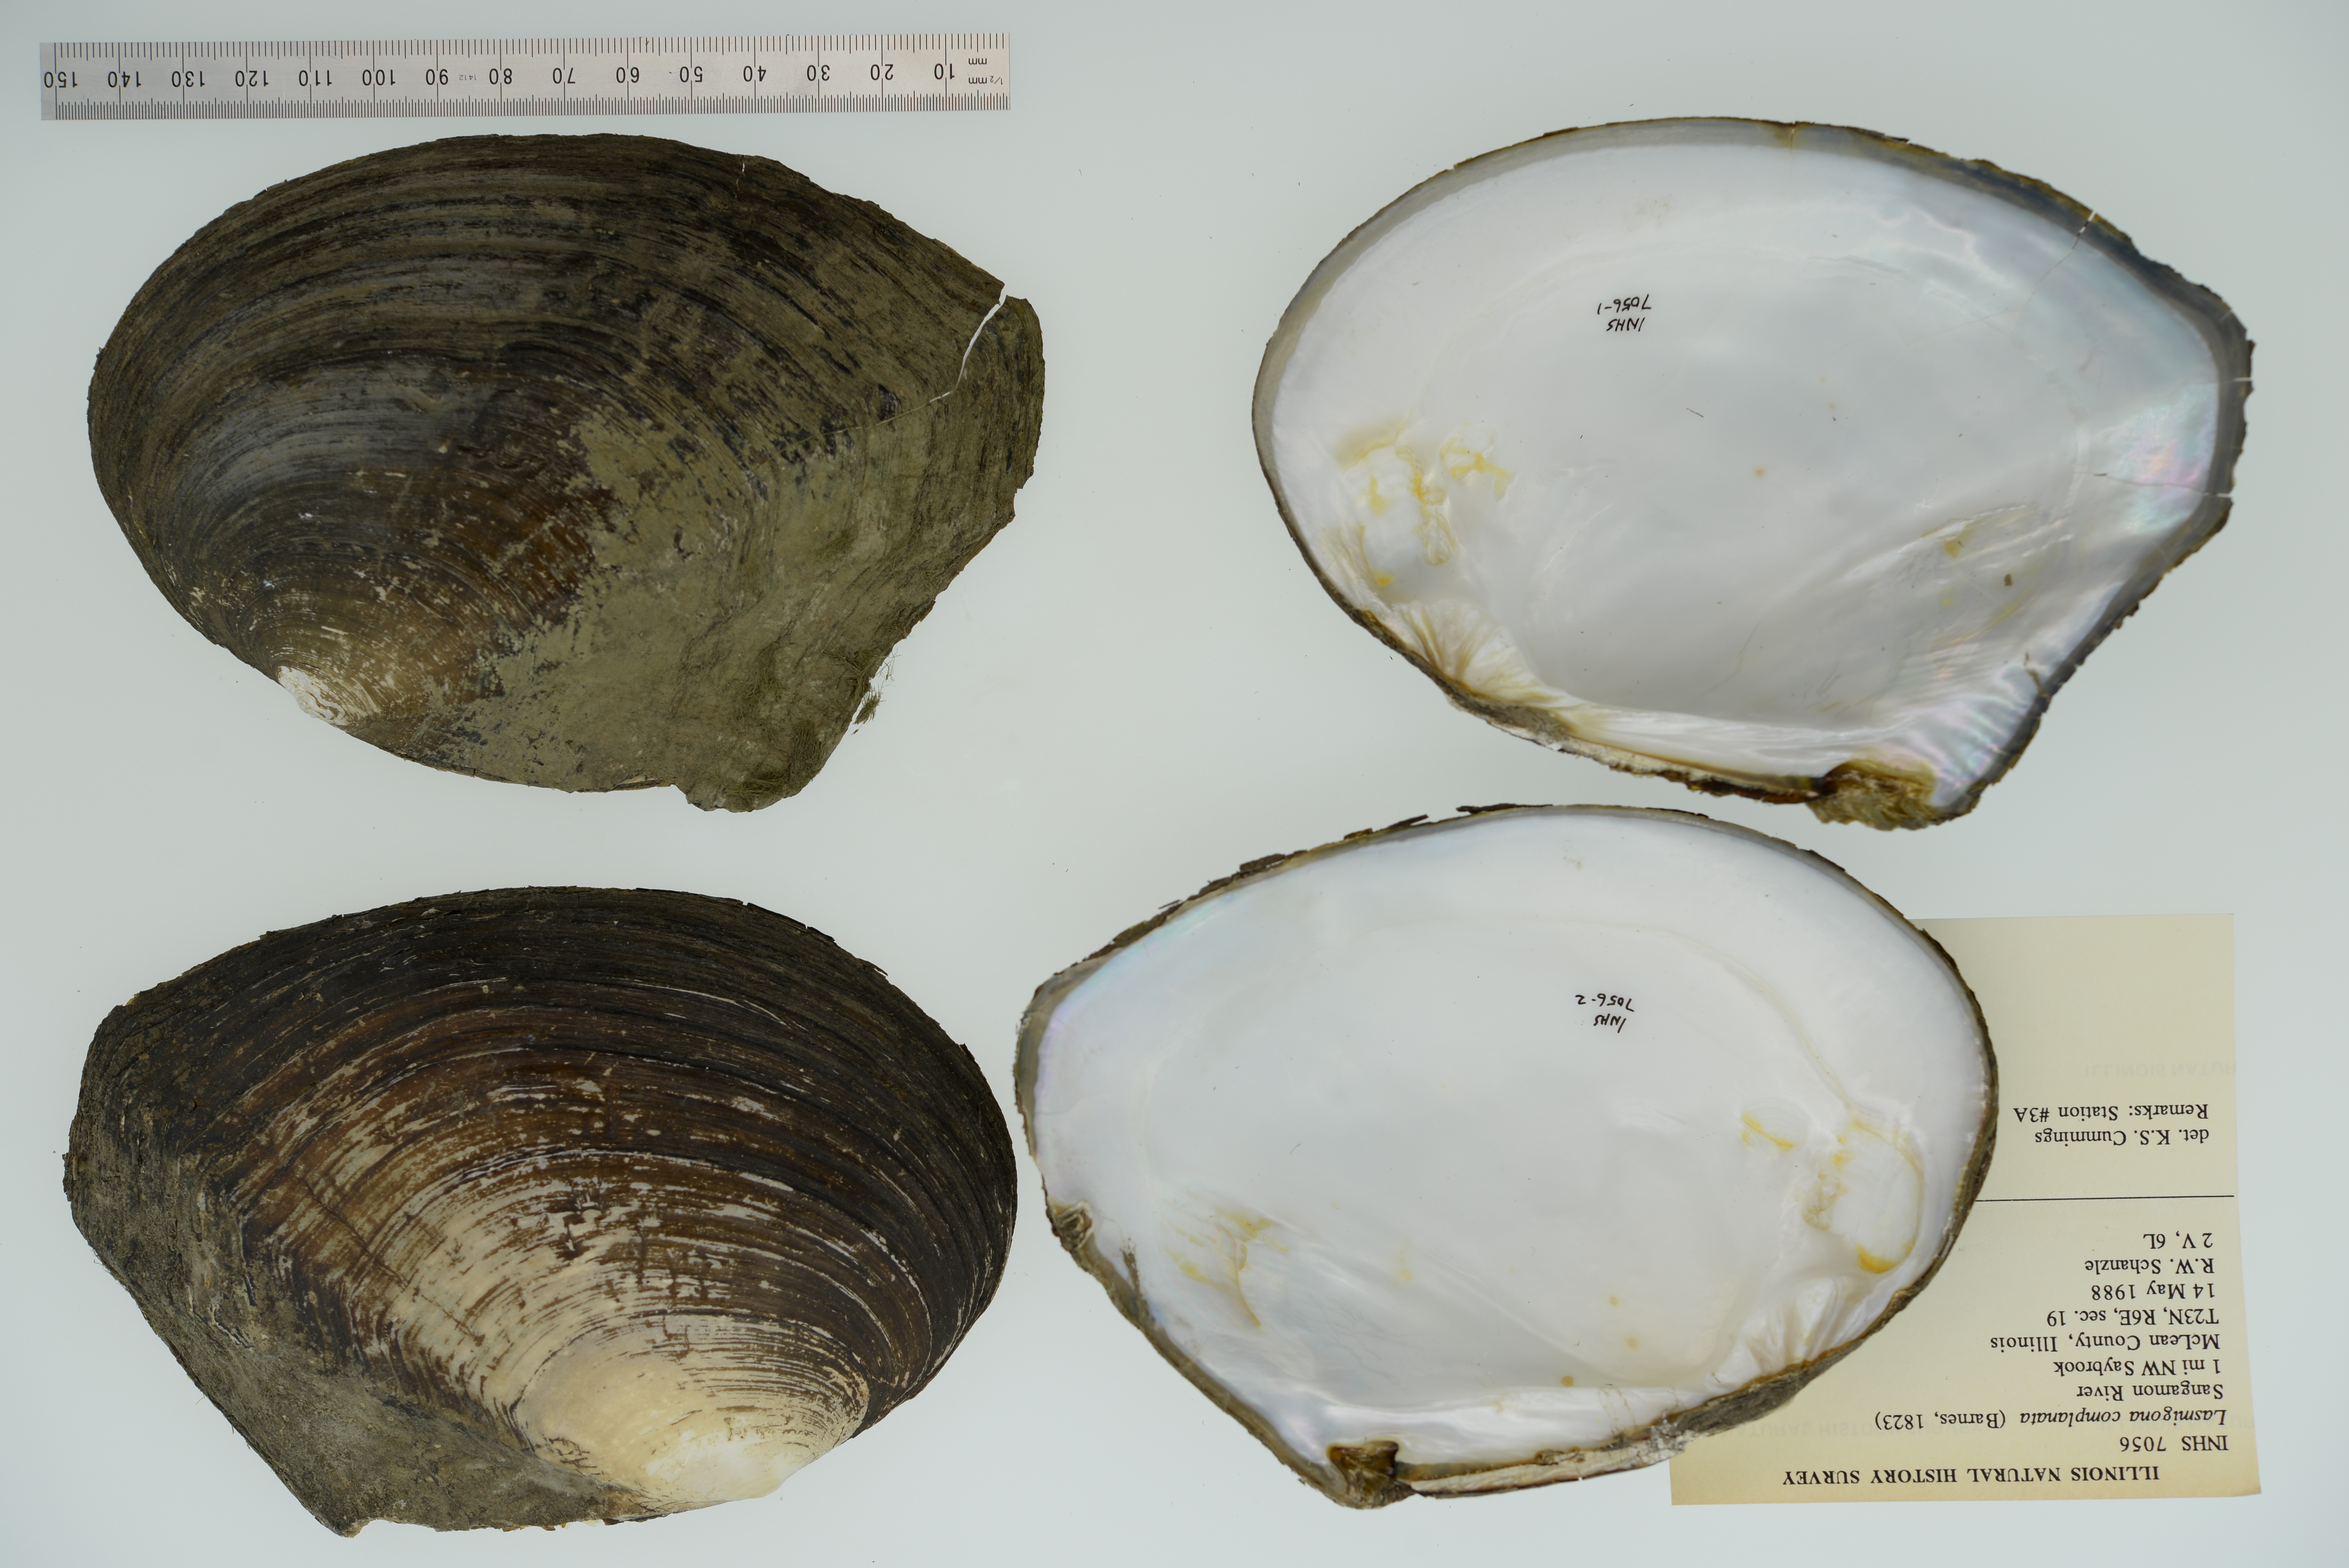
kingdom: Animalia
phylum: Mollusca
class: Bivalvia
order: Unionida
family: Unionidae
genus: Lasmigona
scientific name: Lasmigona complanata
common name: White heelsplitter
